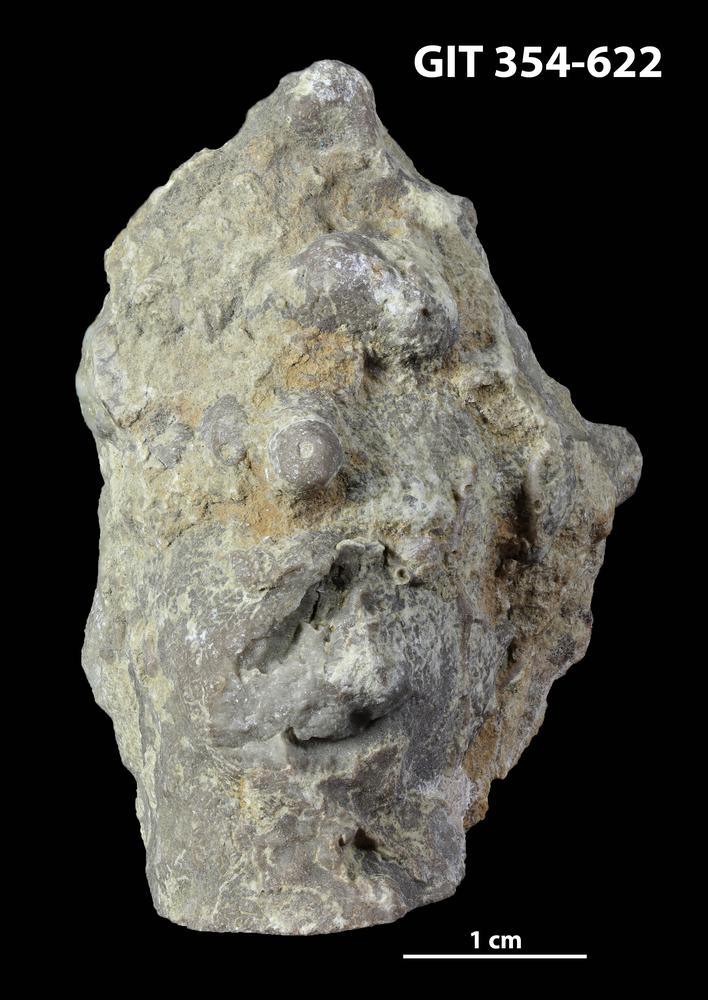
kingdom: Animalia
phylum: Porifera
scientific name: Porifera
